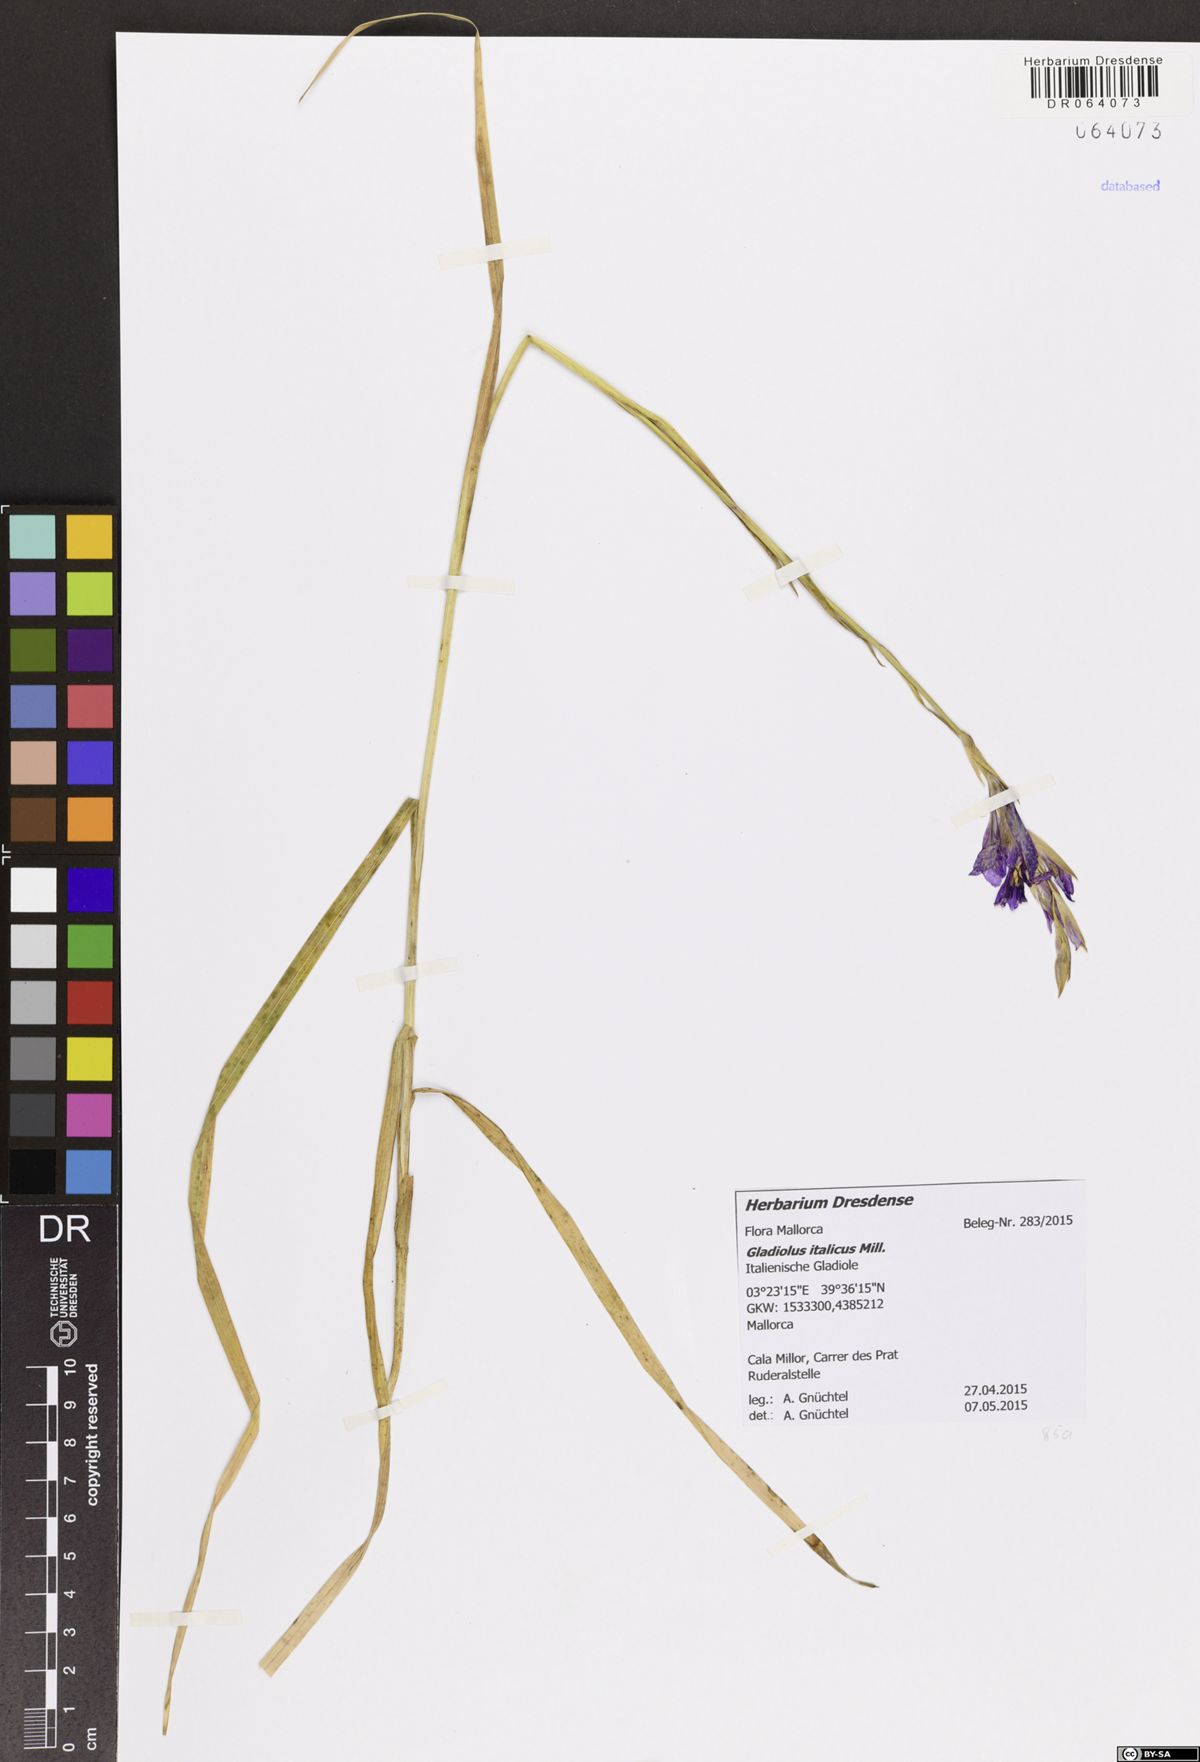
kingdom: Plantae
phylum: Tracheophyta
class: Liliopsida
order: Asparagales
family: Iridaceae
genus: Gladiolus
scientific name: Gladiolus italicus
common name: Field gladiolus
